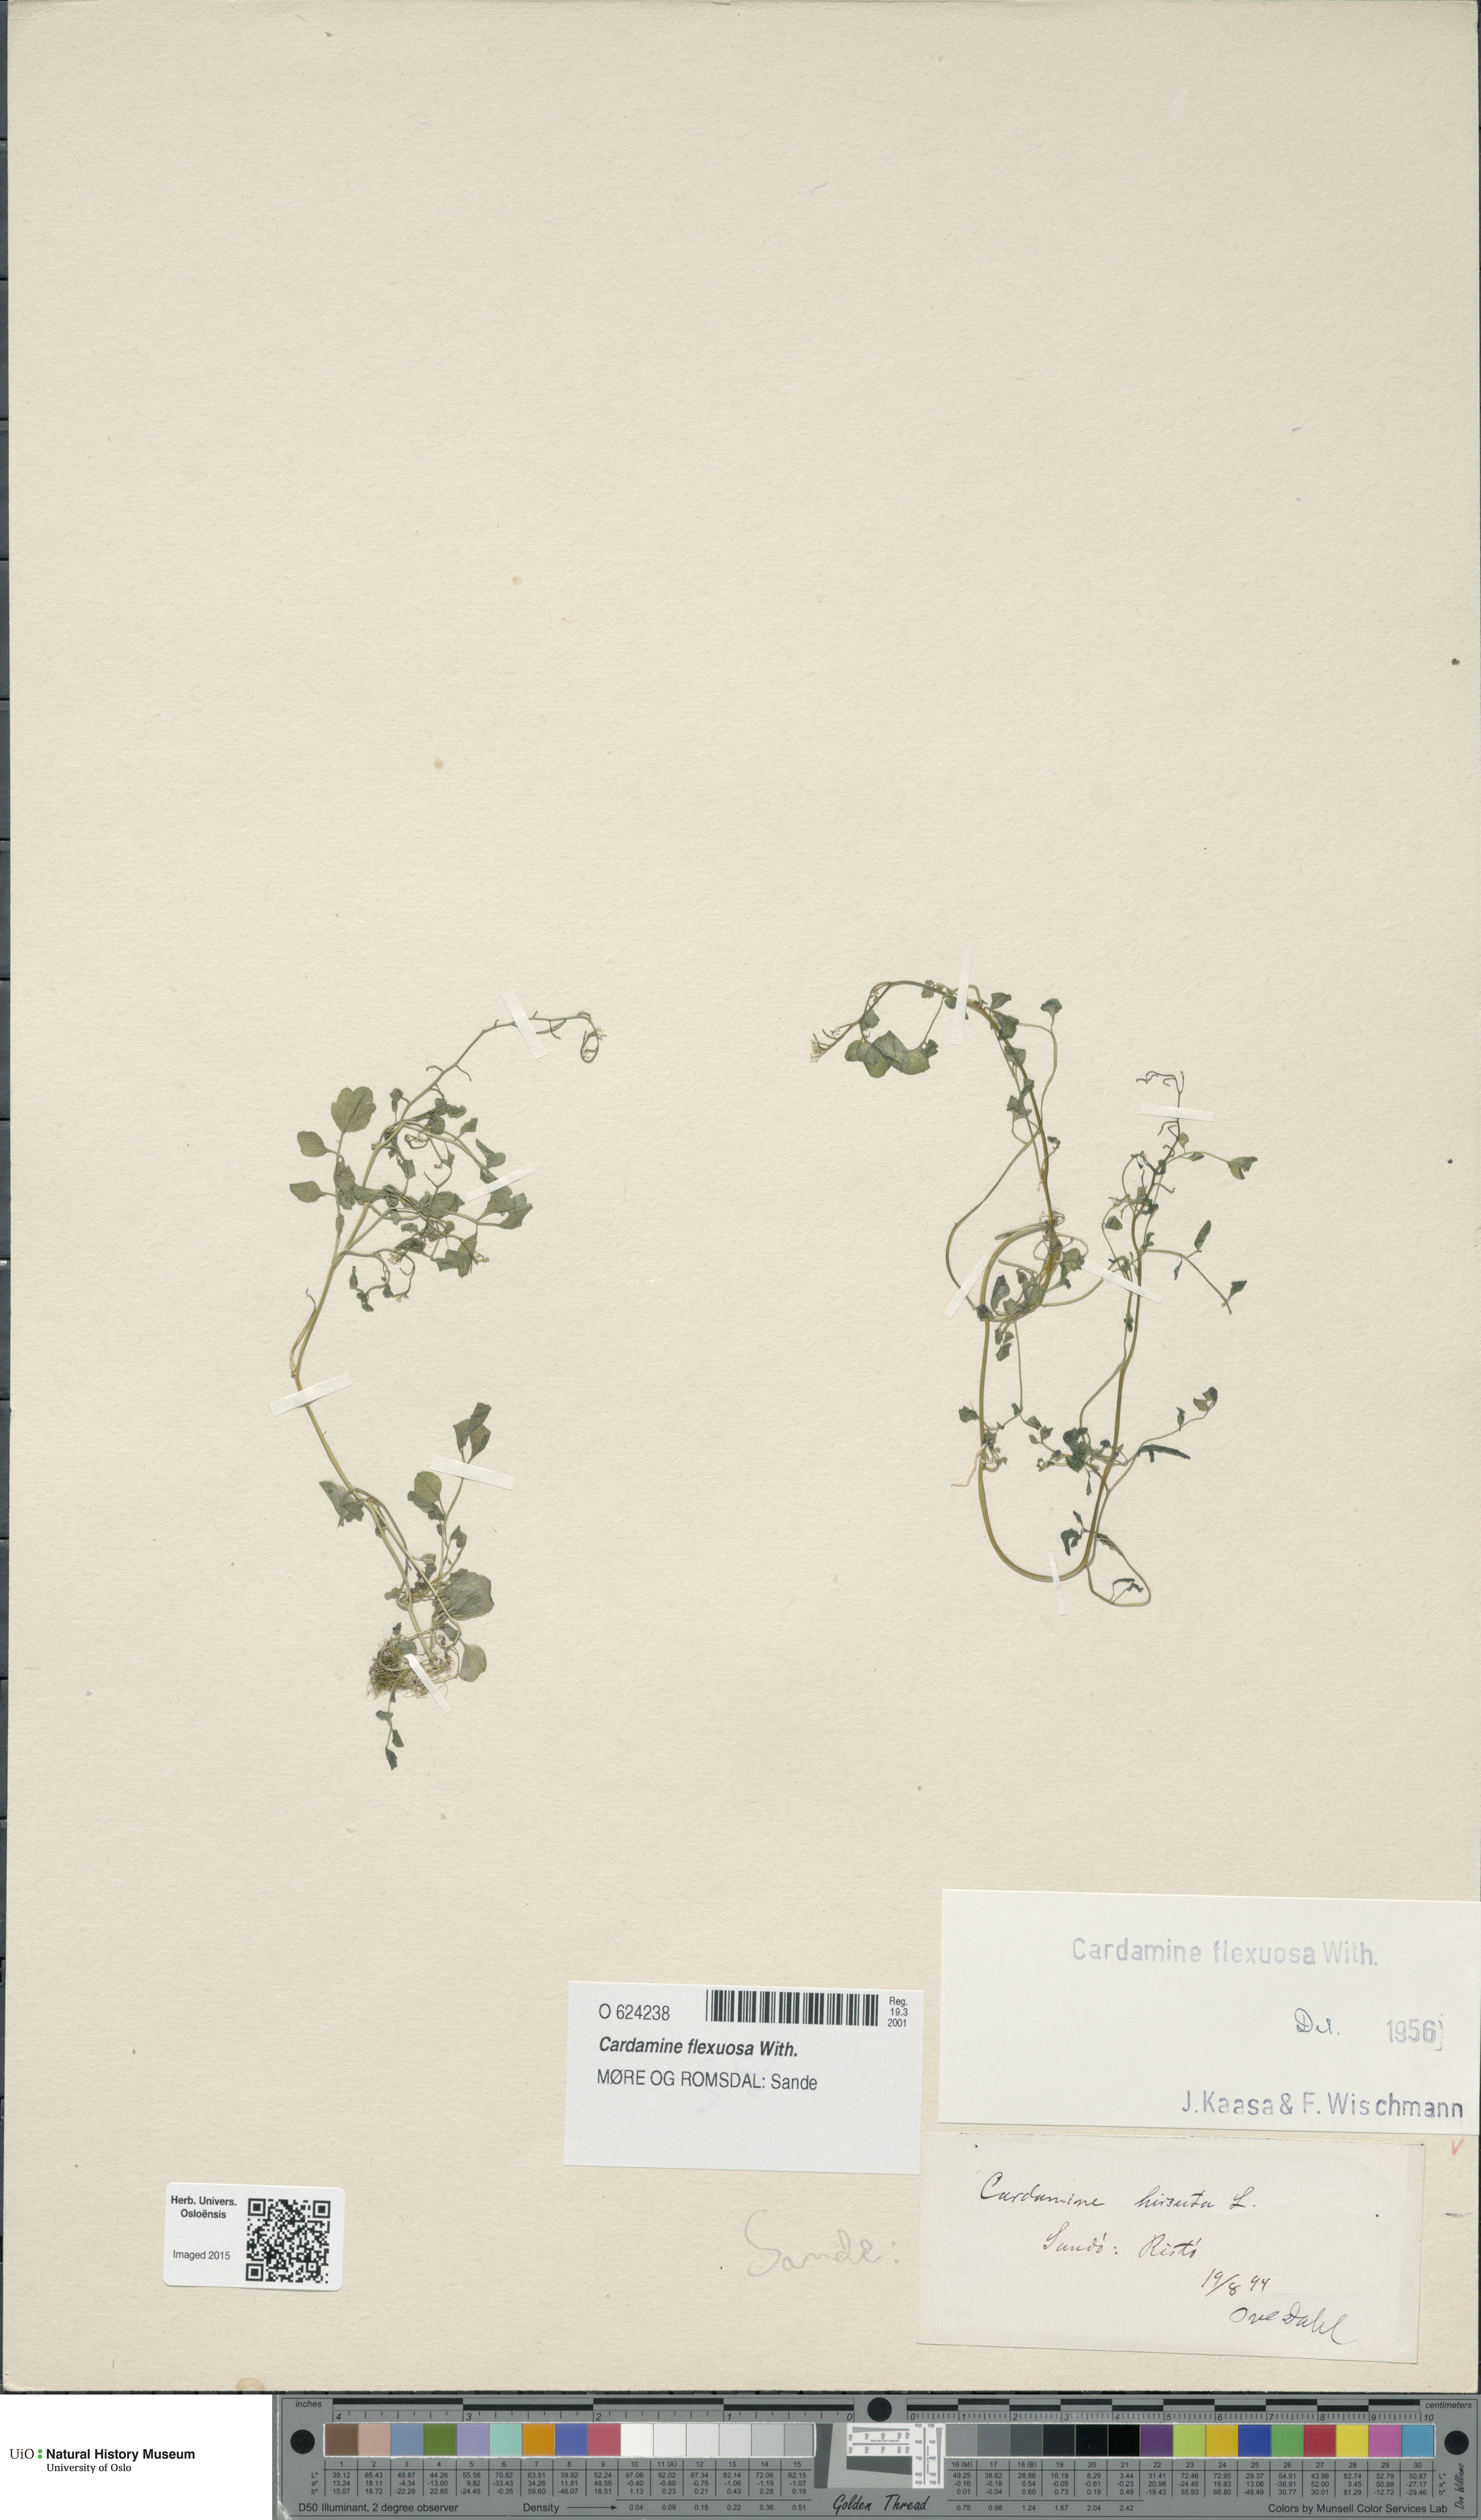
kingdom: Plantae
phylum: Tracheophyta
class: Magnoliopsida
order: Brassicales
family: Brassicaceae
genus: Cardamine
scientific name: Cardamine flexuosa
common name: Woodland bittercress
